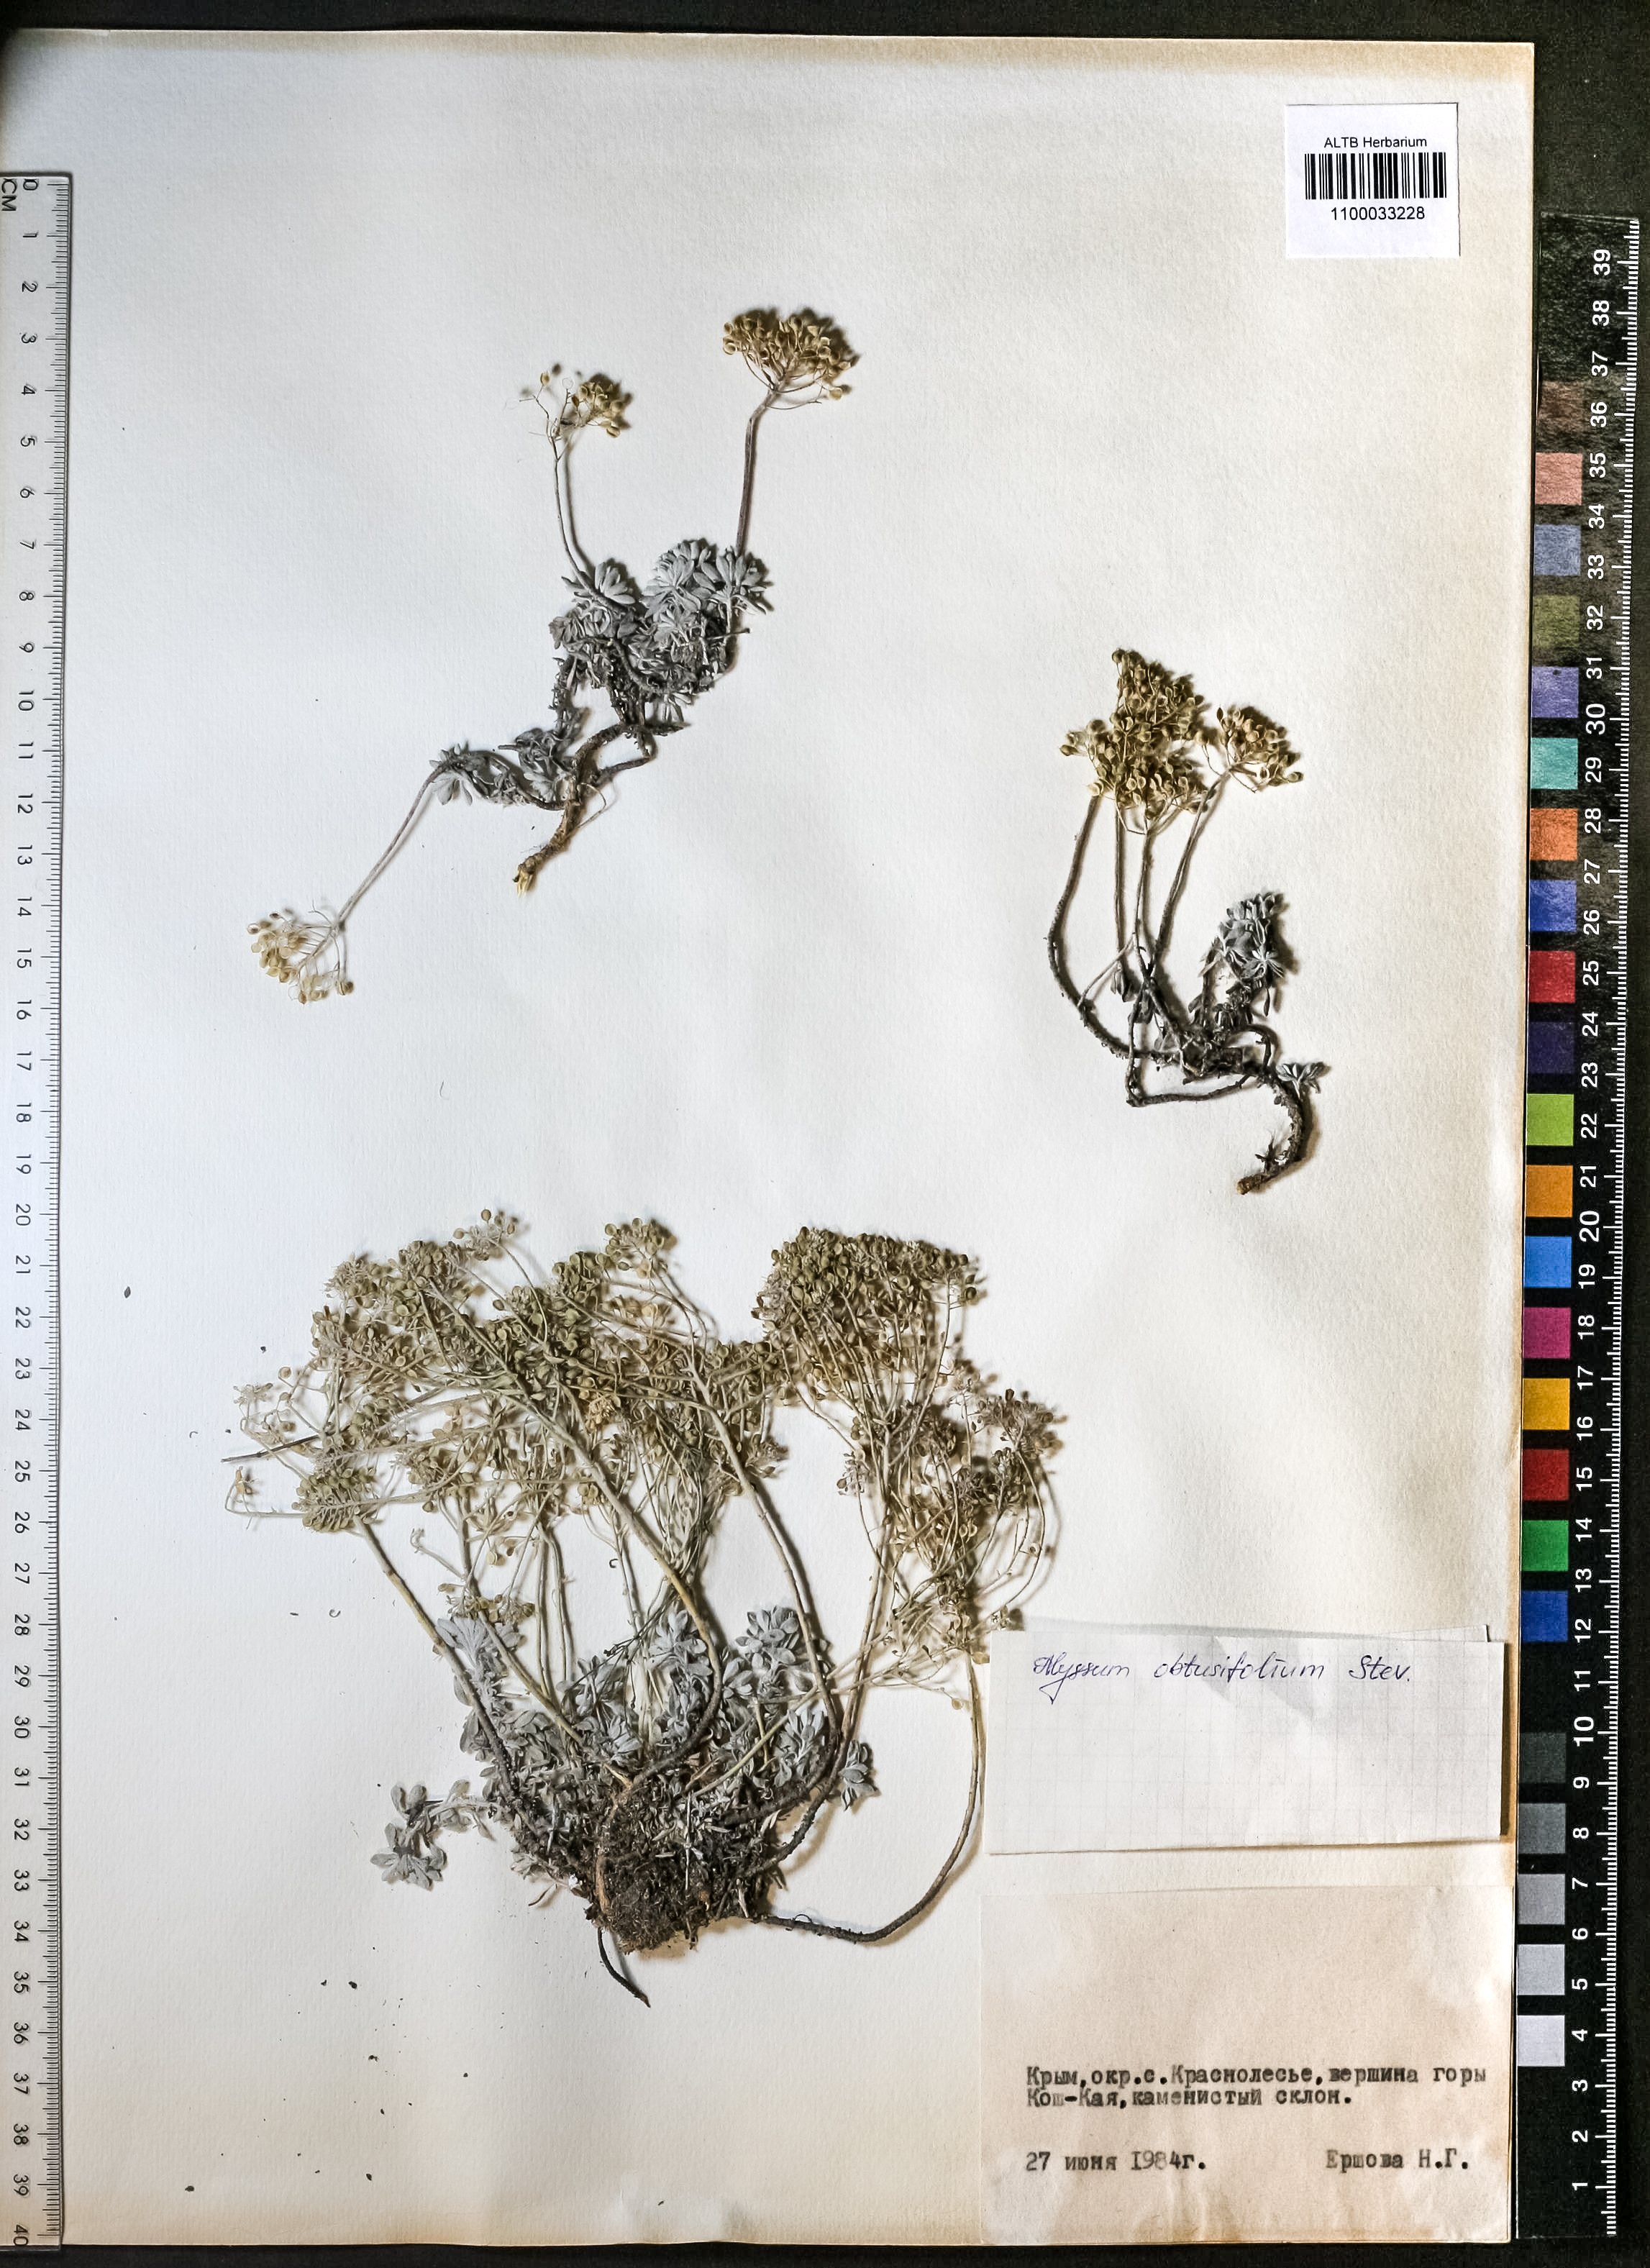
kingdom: Plantae
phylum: Tracheophyta
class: Magnoliopsida
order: Brassicales
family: Brassicaceae
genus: Odontarrhena
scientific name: Odontarrhena obtusifolia
